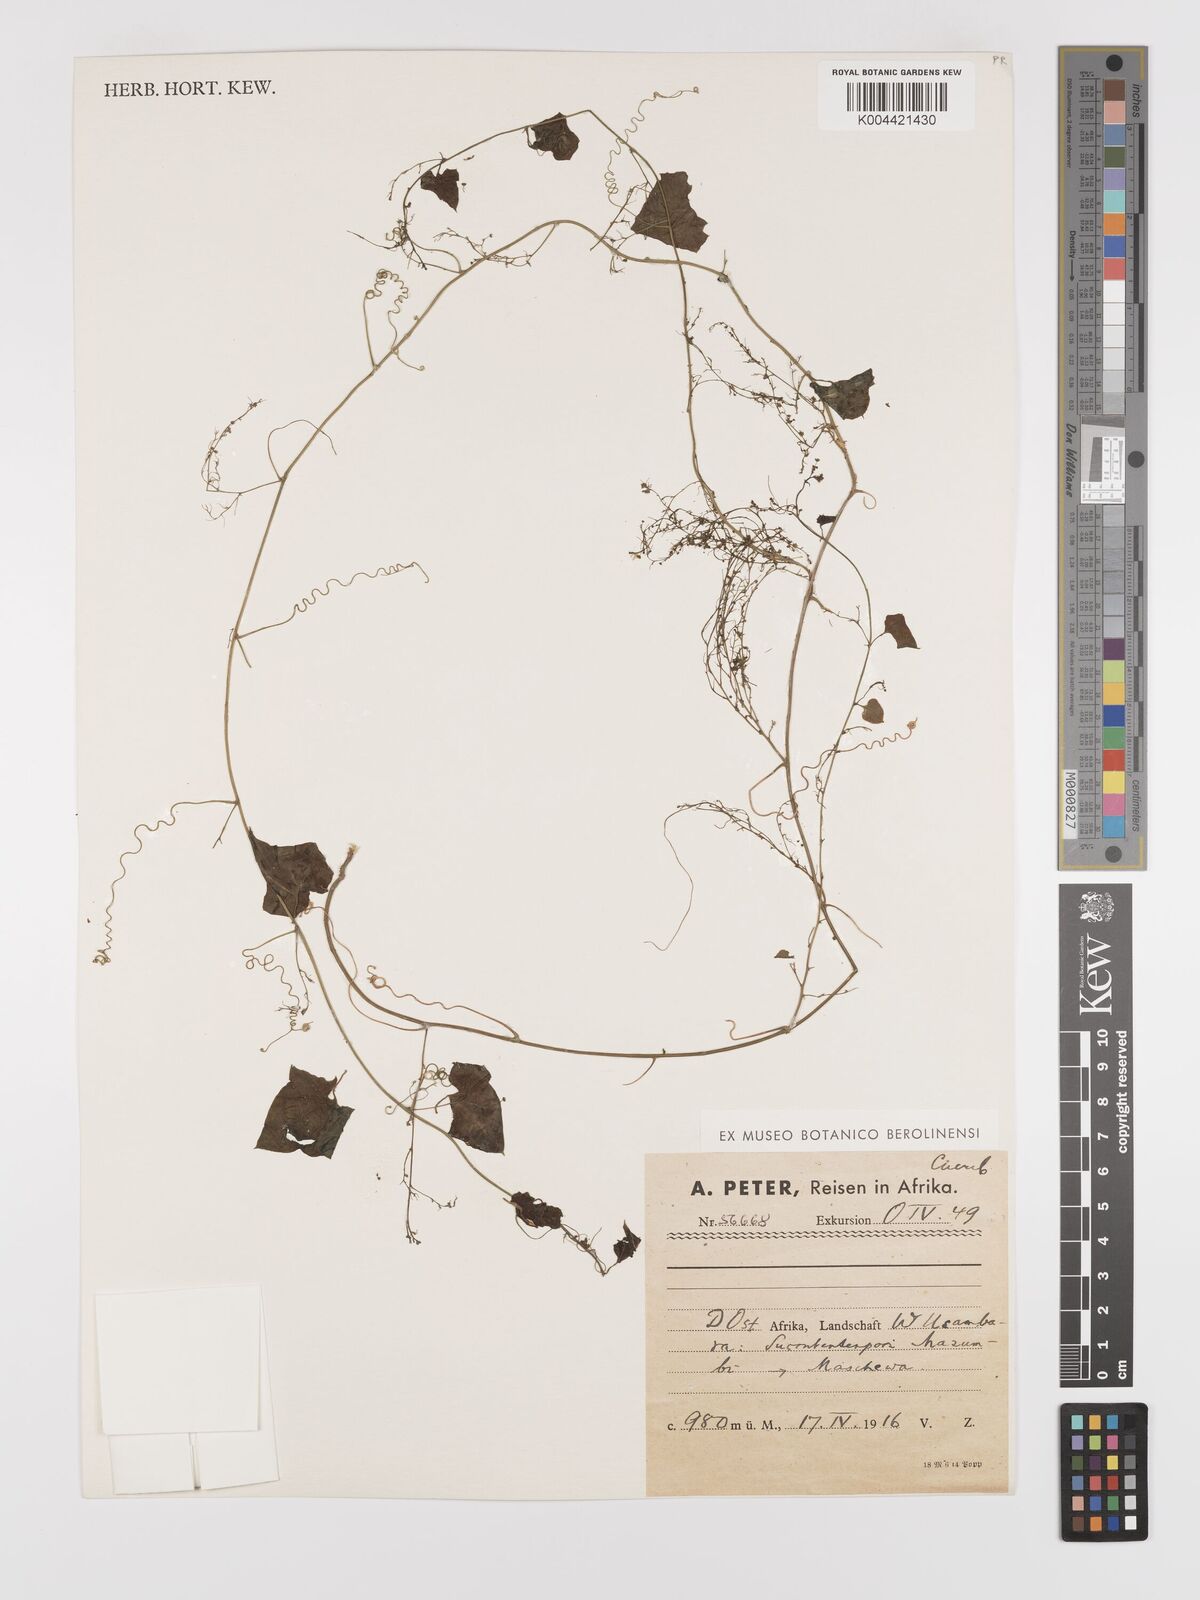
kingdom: Plantae
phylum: Tracheophyta
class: Magnoliopsida
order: Cucurbitales
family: Cucurbitaceae
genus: Cyclantheropsis
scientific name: Cyclantheropsis parviflora
